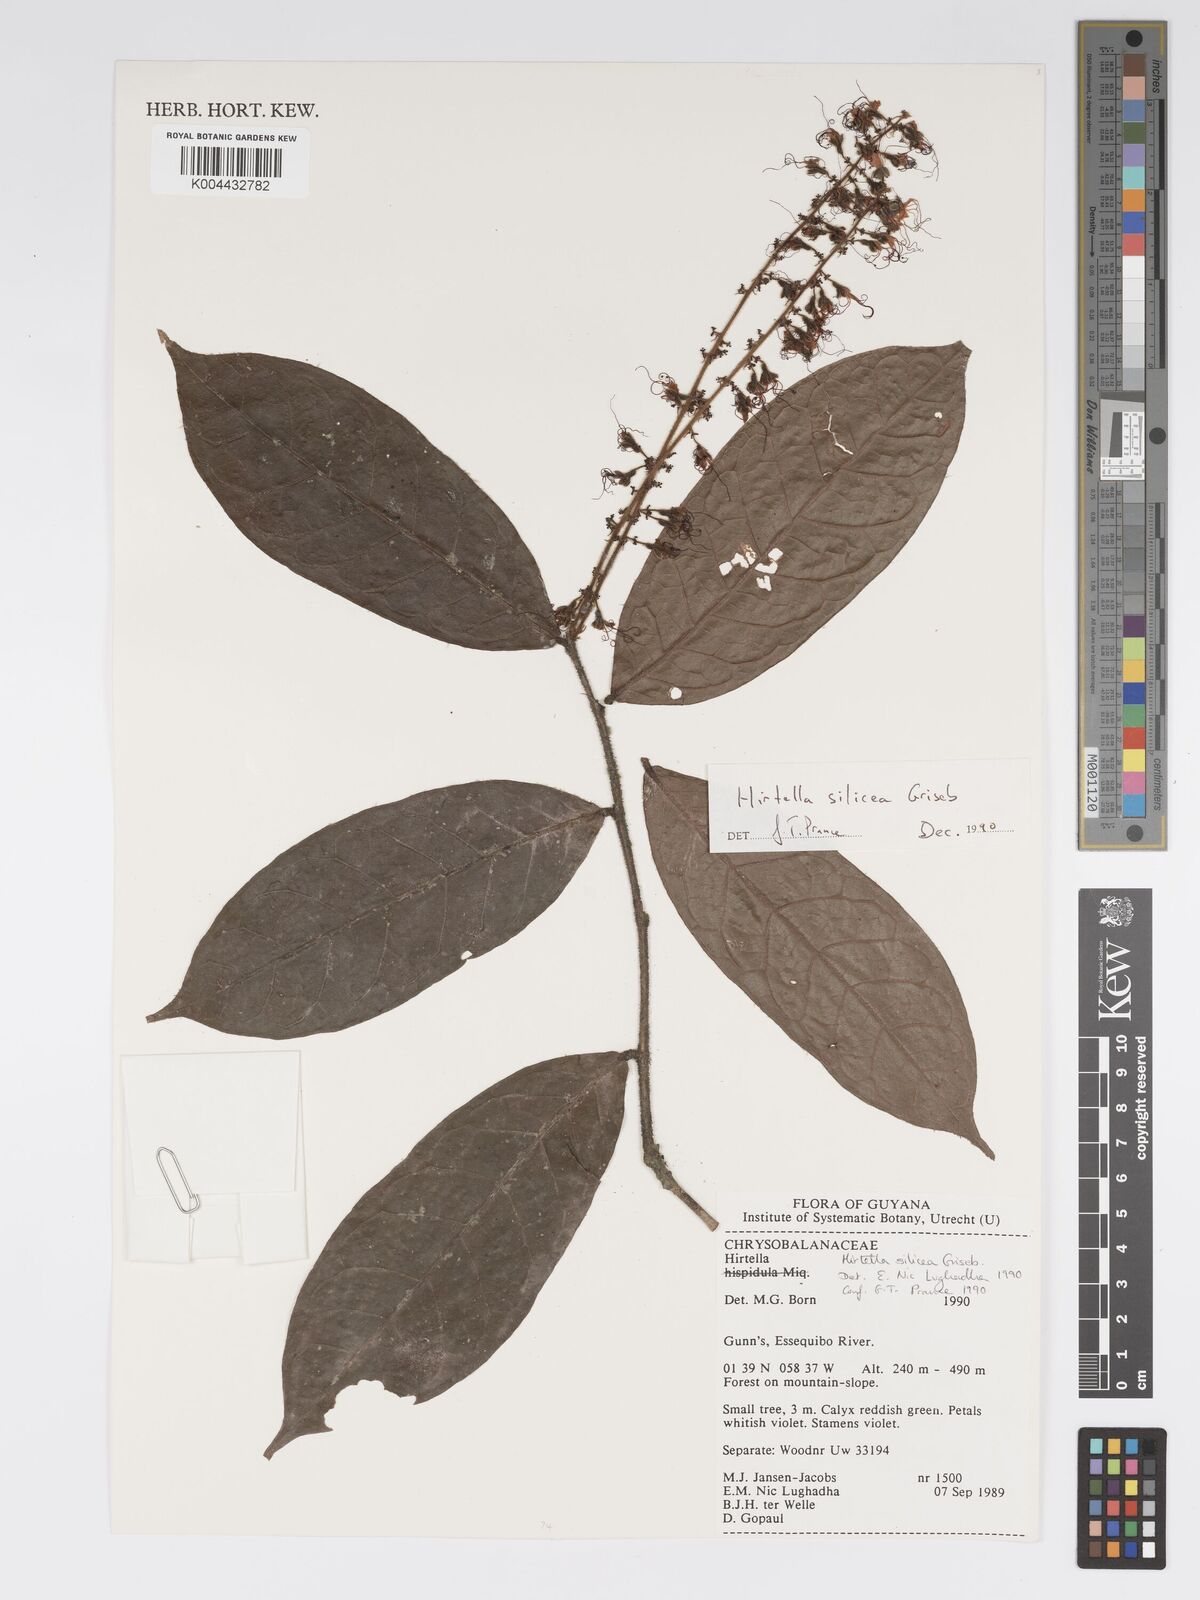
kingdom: Plantae
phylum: Tracheophyta
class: Magnoliopsida
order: Malpighiales
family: Chrysobalanaceae
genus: Hirtella
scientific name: Hirtella silicea
